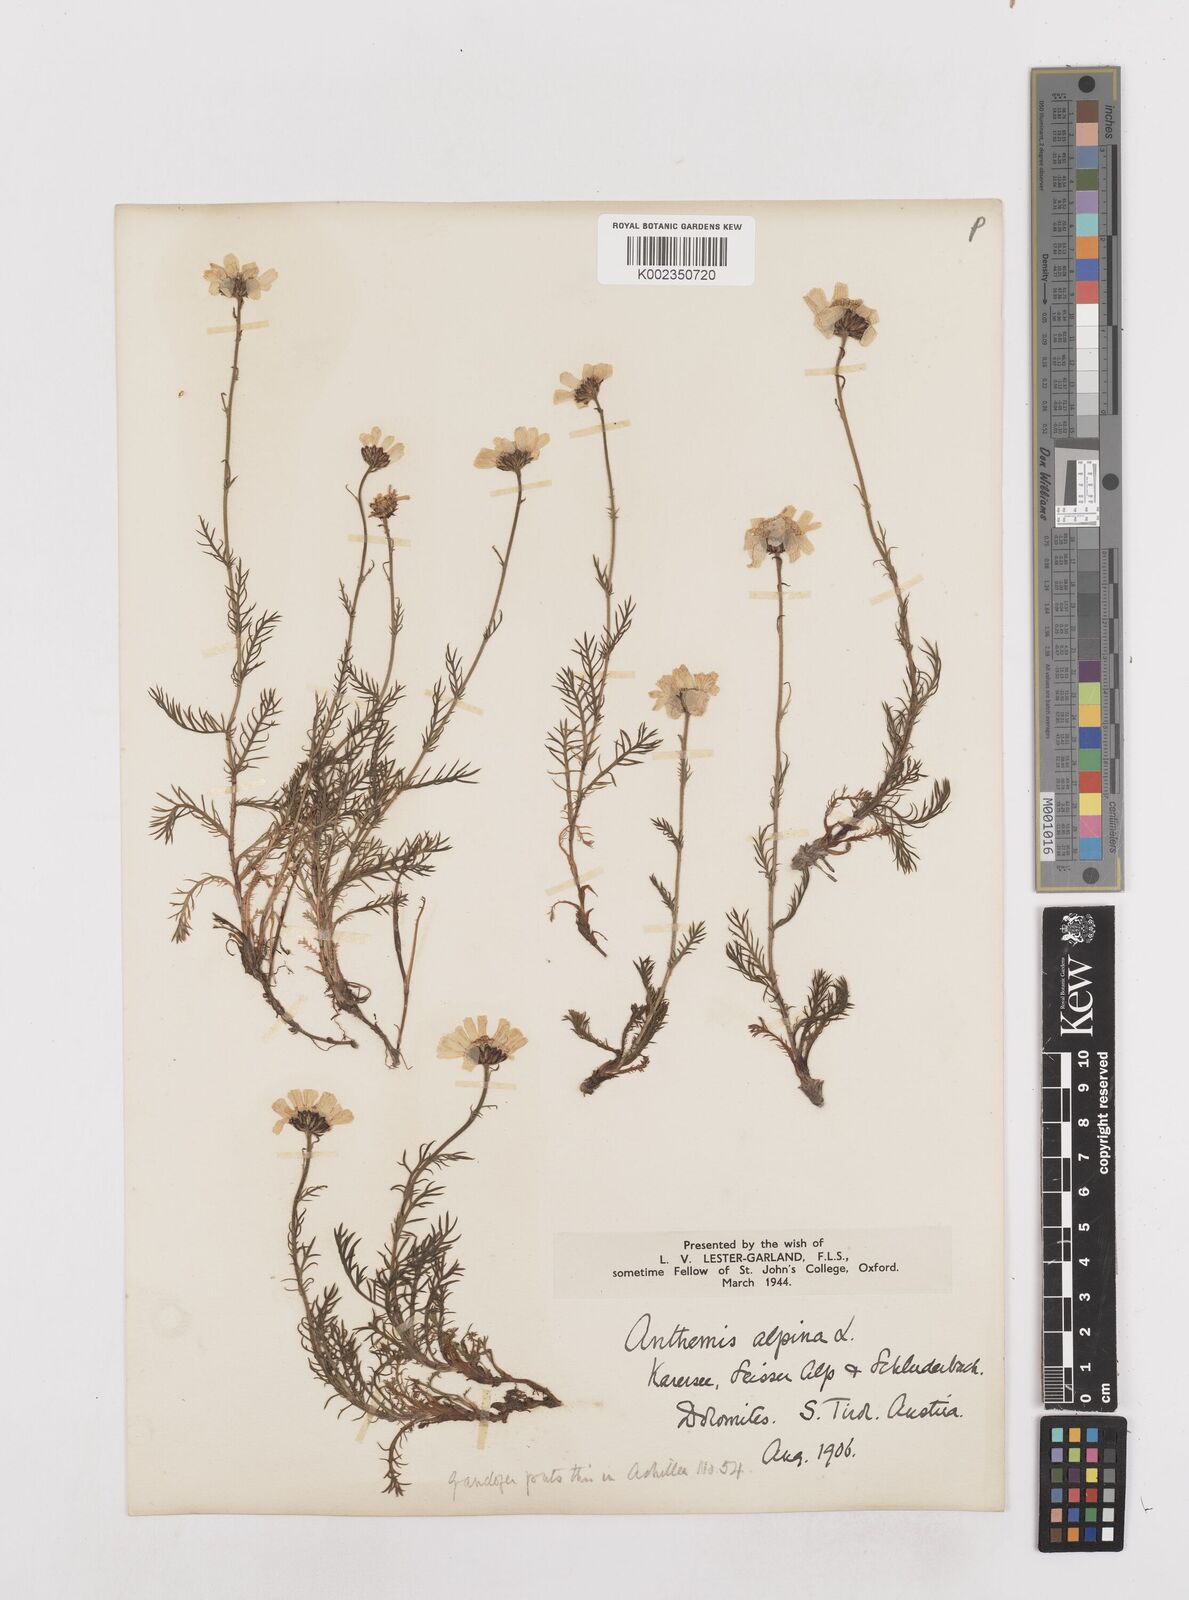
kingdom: Plantae
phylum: Tracheophyta
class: Magnoliopsida
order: Asterales
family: Asteraceae
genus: Achillea
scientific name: Achillea impatiens
